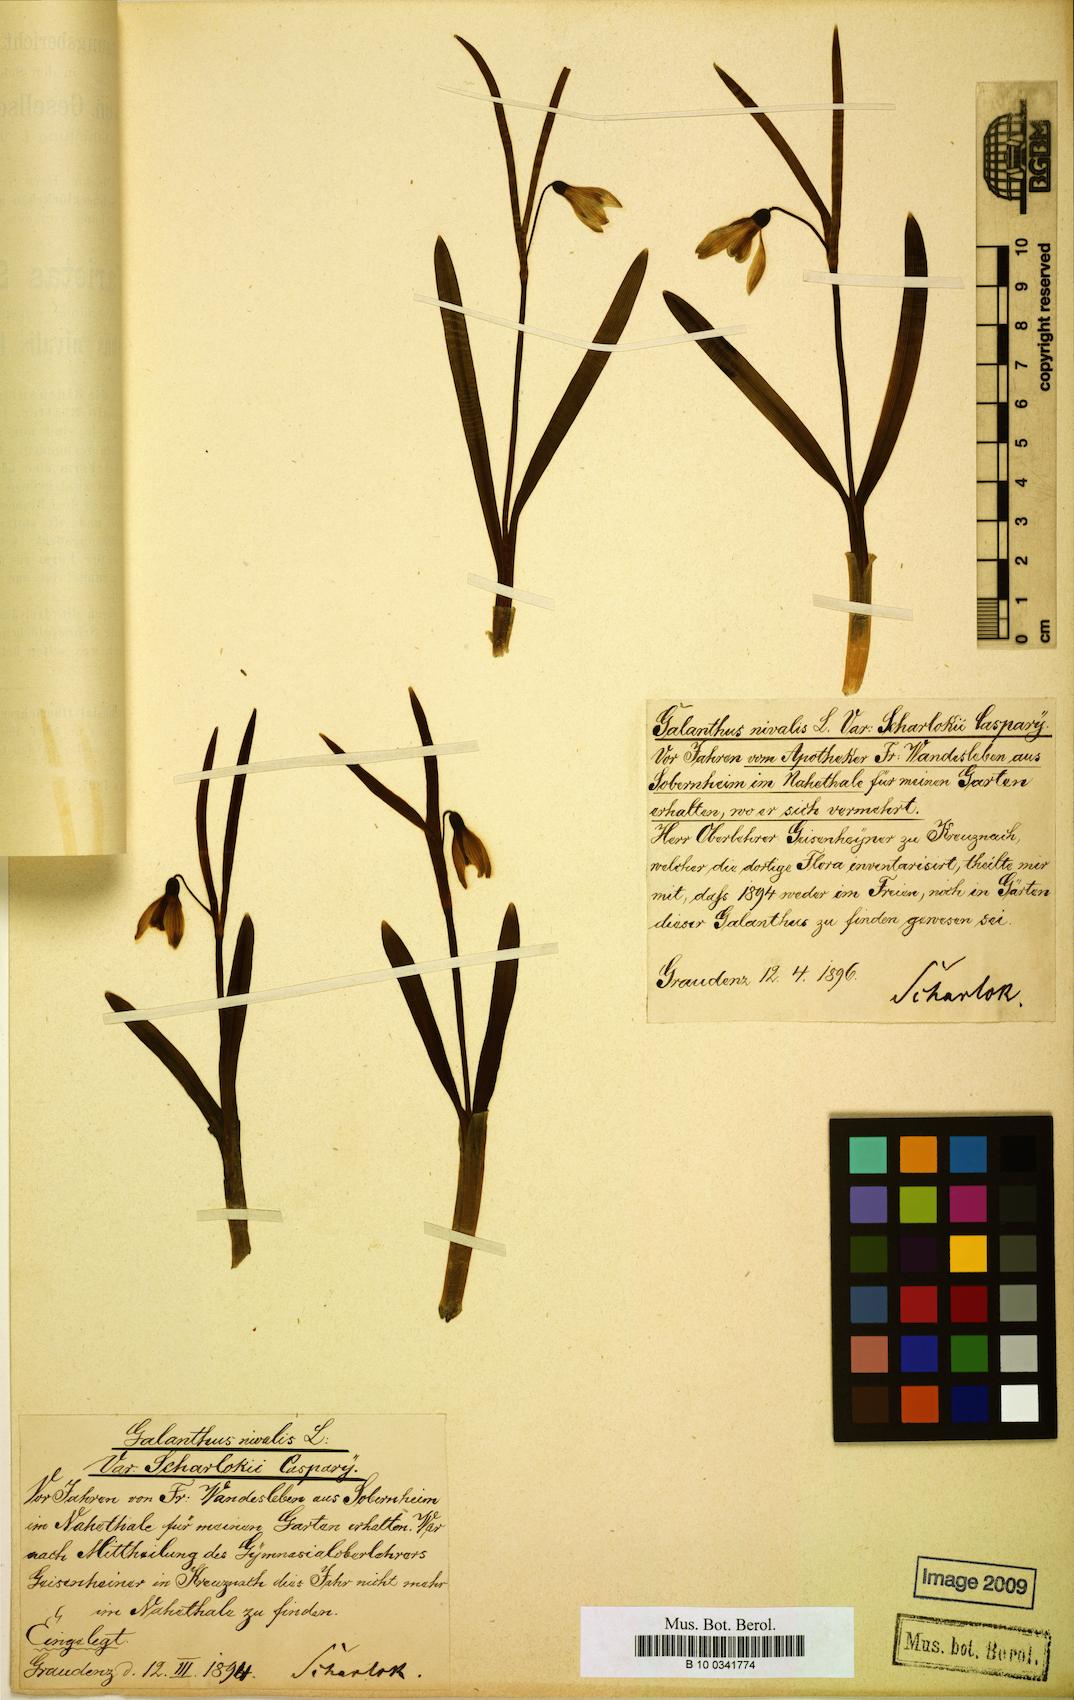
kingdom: Plantae
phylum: Tracheophyta
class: Liliopsida
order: Asparagales
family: Amaryllidaceae
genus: Galanthus
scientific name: Galanthus nivalis
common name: Snowdrop
